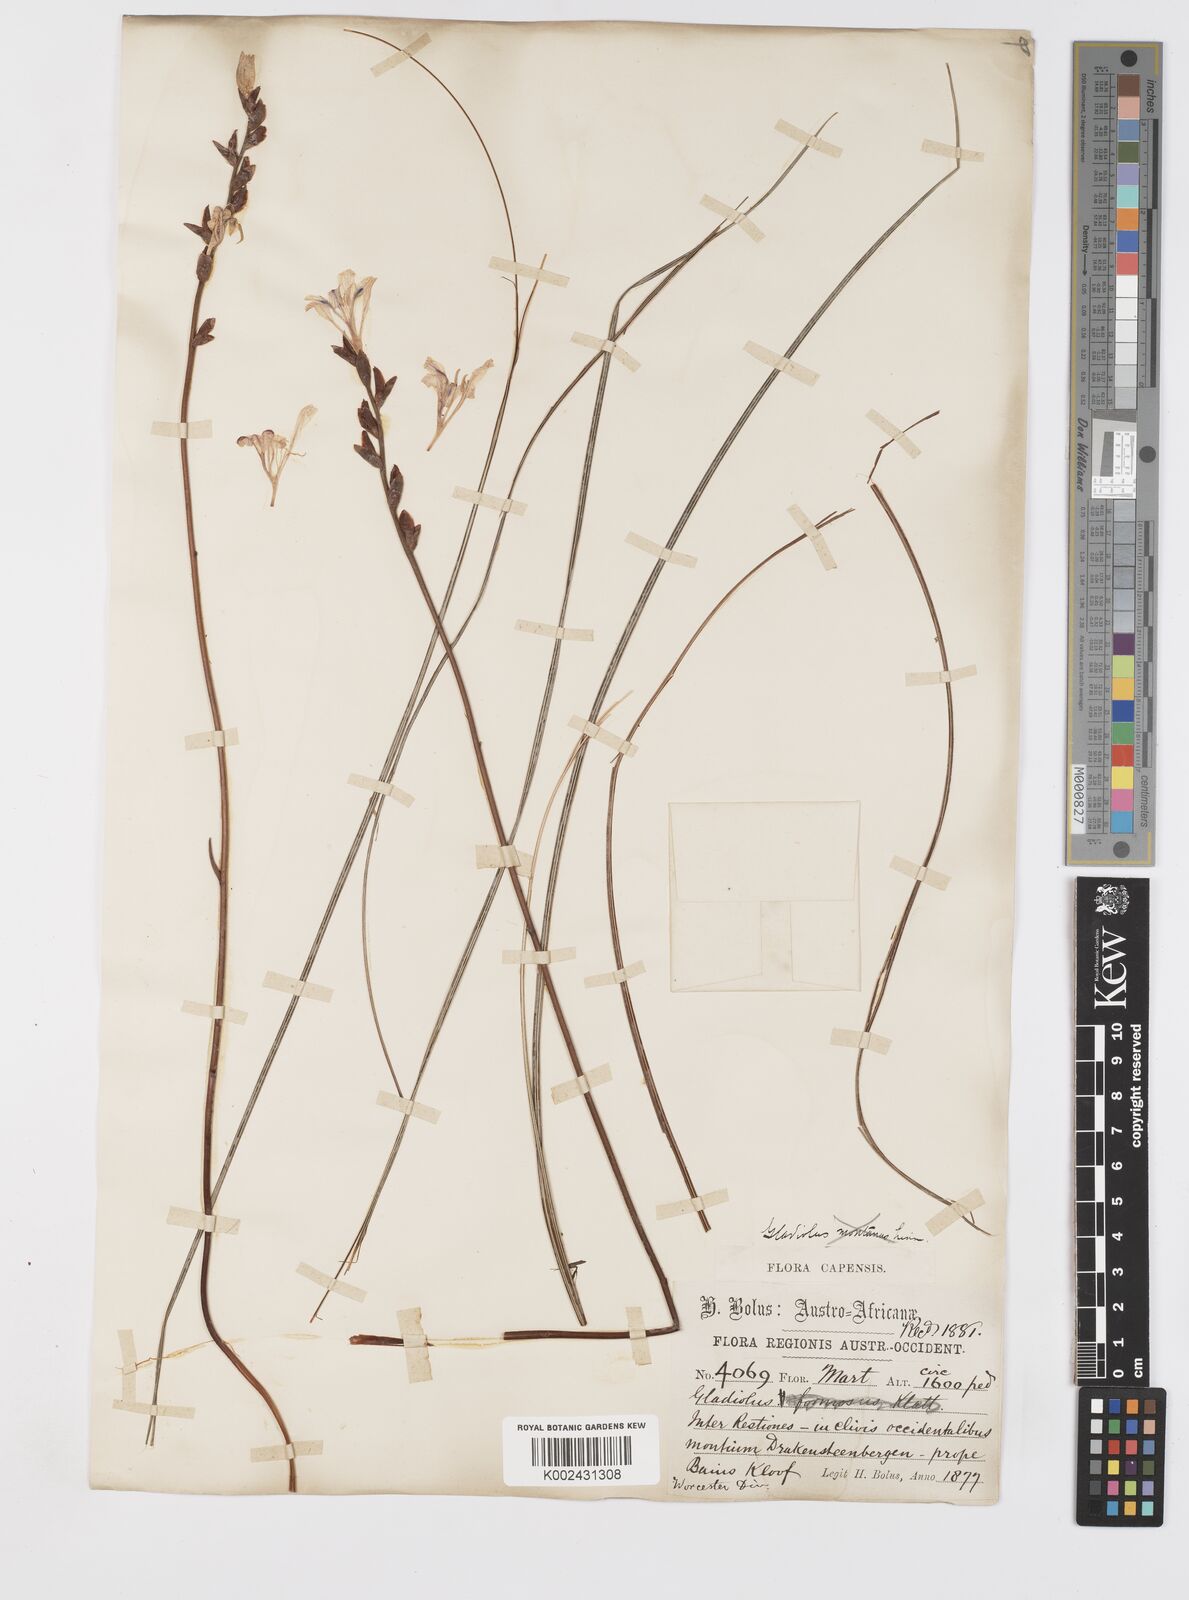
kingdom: Plantae
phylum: Tracheophyta
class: Liliopsida
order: Asparagales
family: Iridaceae
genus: Tritoniopsis
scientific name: Tritoniopsis lata
